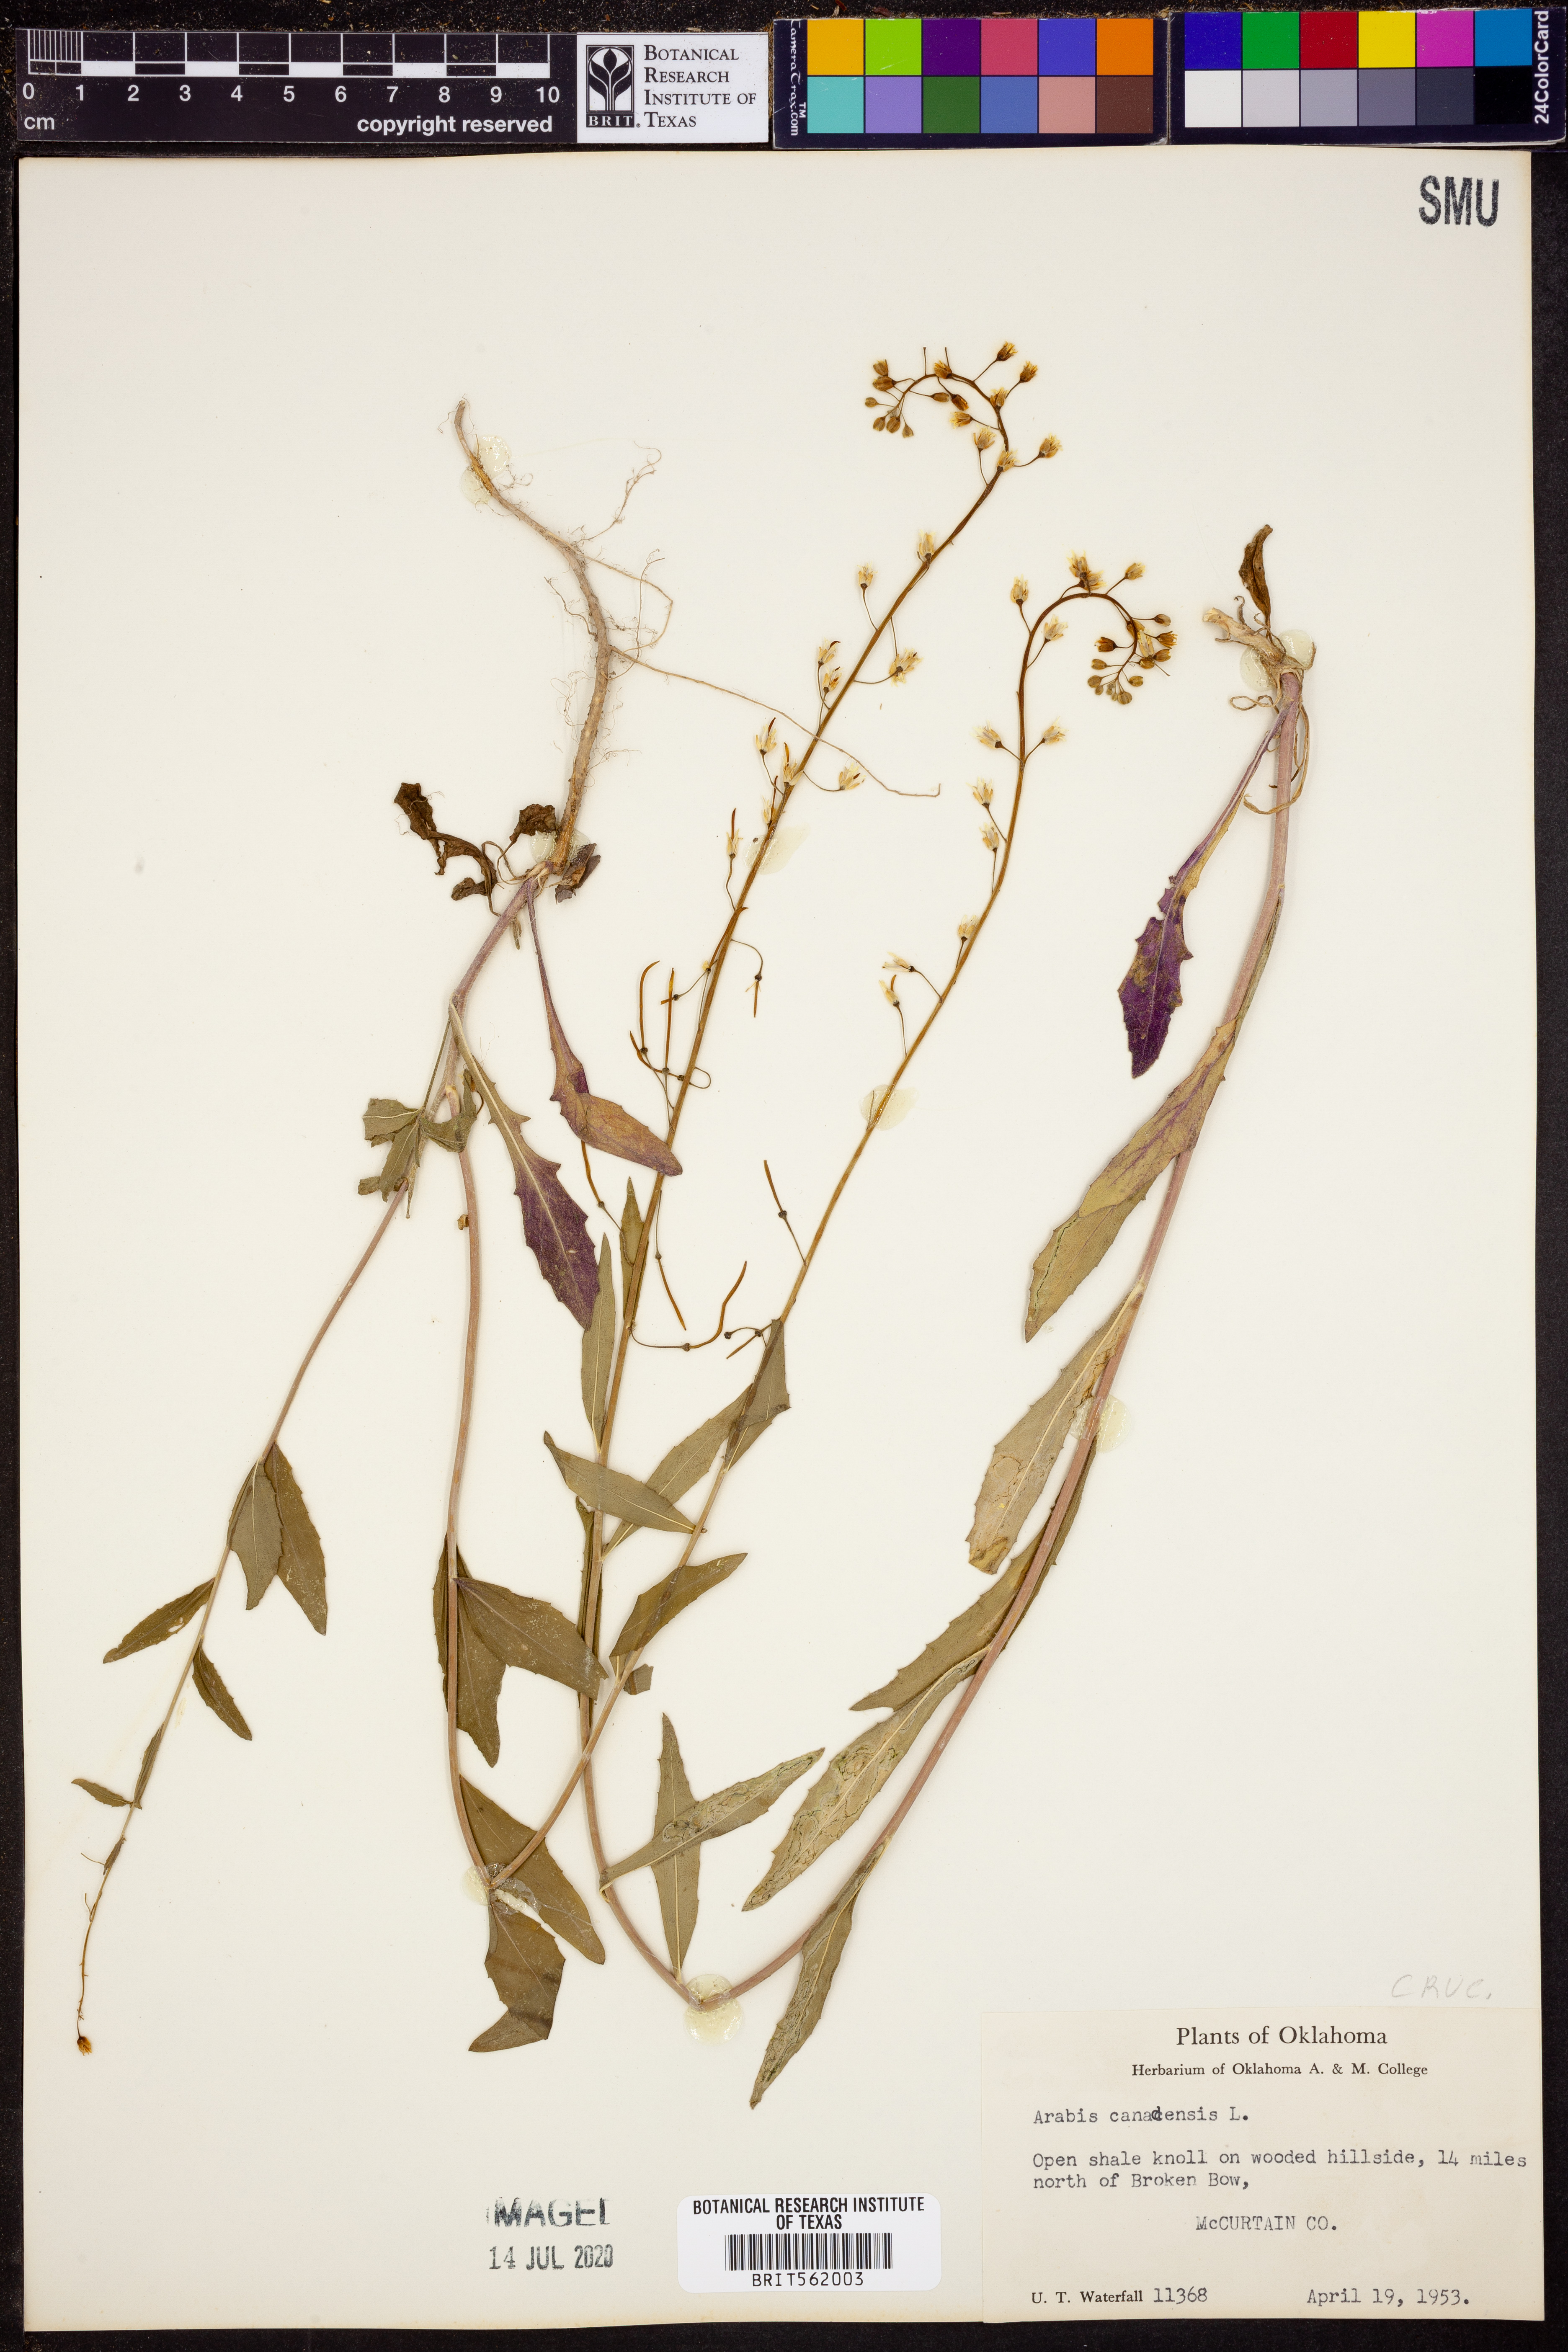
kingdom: Plantae
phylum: Tracheophyta
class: Magnoliopsida
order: Brassicales
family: Brassicaceae
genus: Borodinia
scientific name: Borodinia canadensis
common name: Sicklepod
